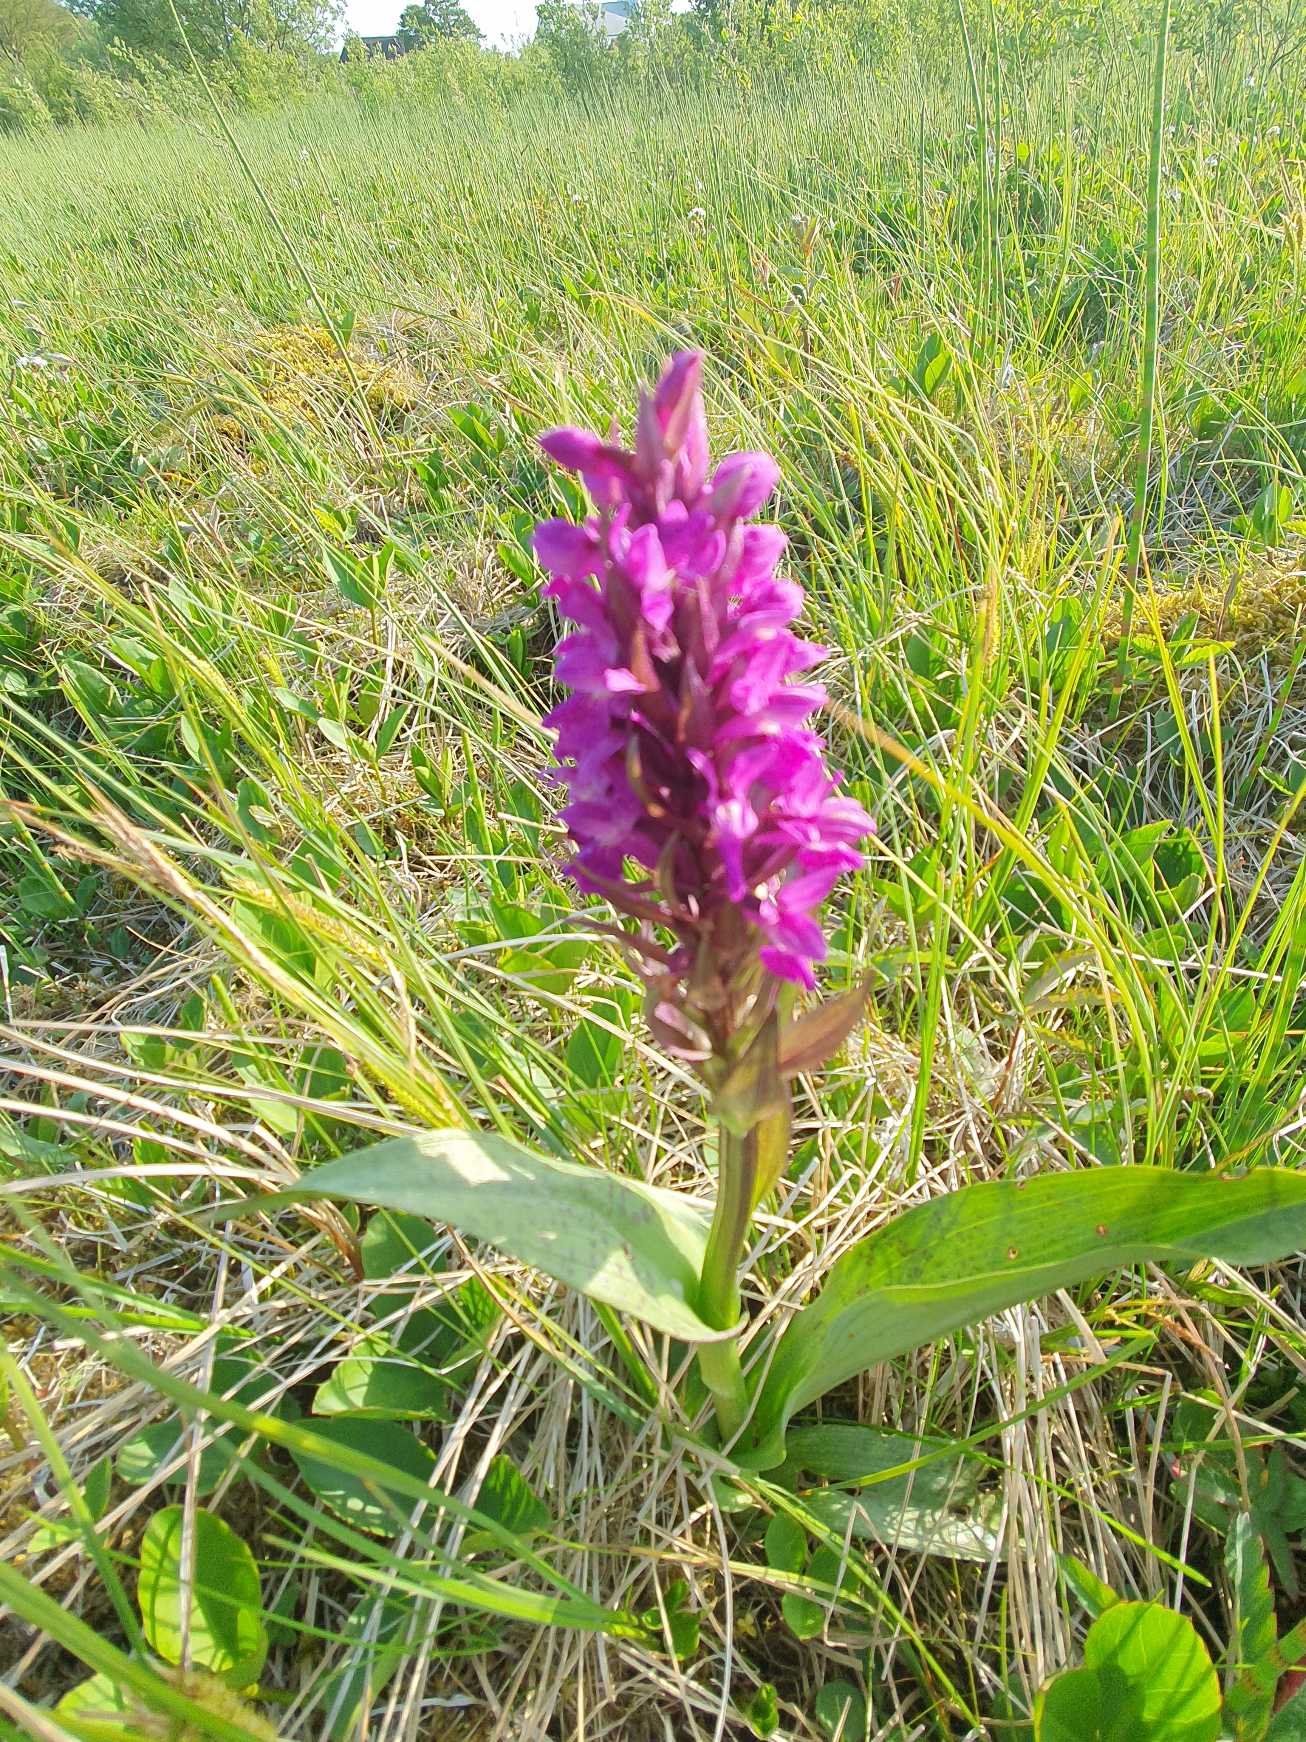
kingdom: Plantae
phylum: Tracheophyta
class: Liliopsida
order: Asparagales
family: Orchidaceae
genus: Dactylorhiza
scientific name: Dactylorhiza majalis
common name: Maj-gøgeurt
